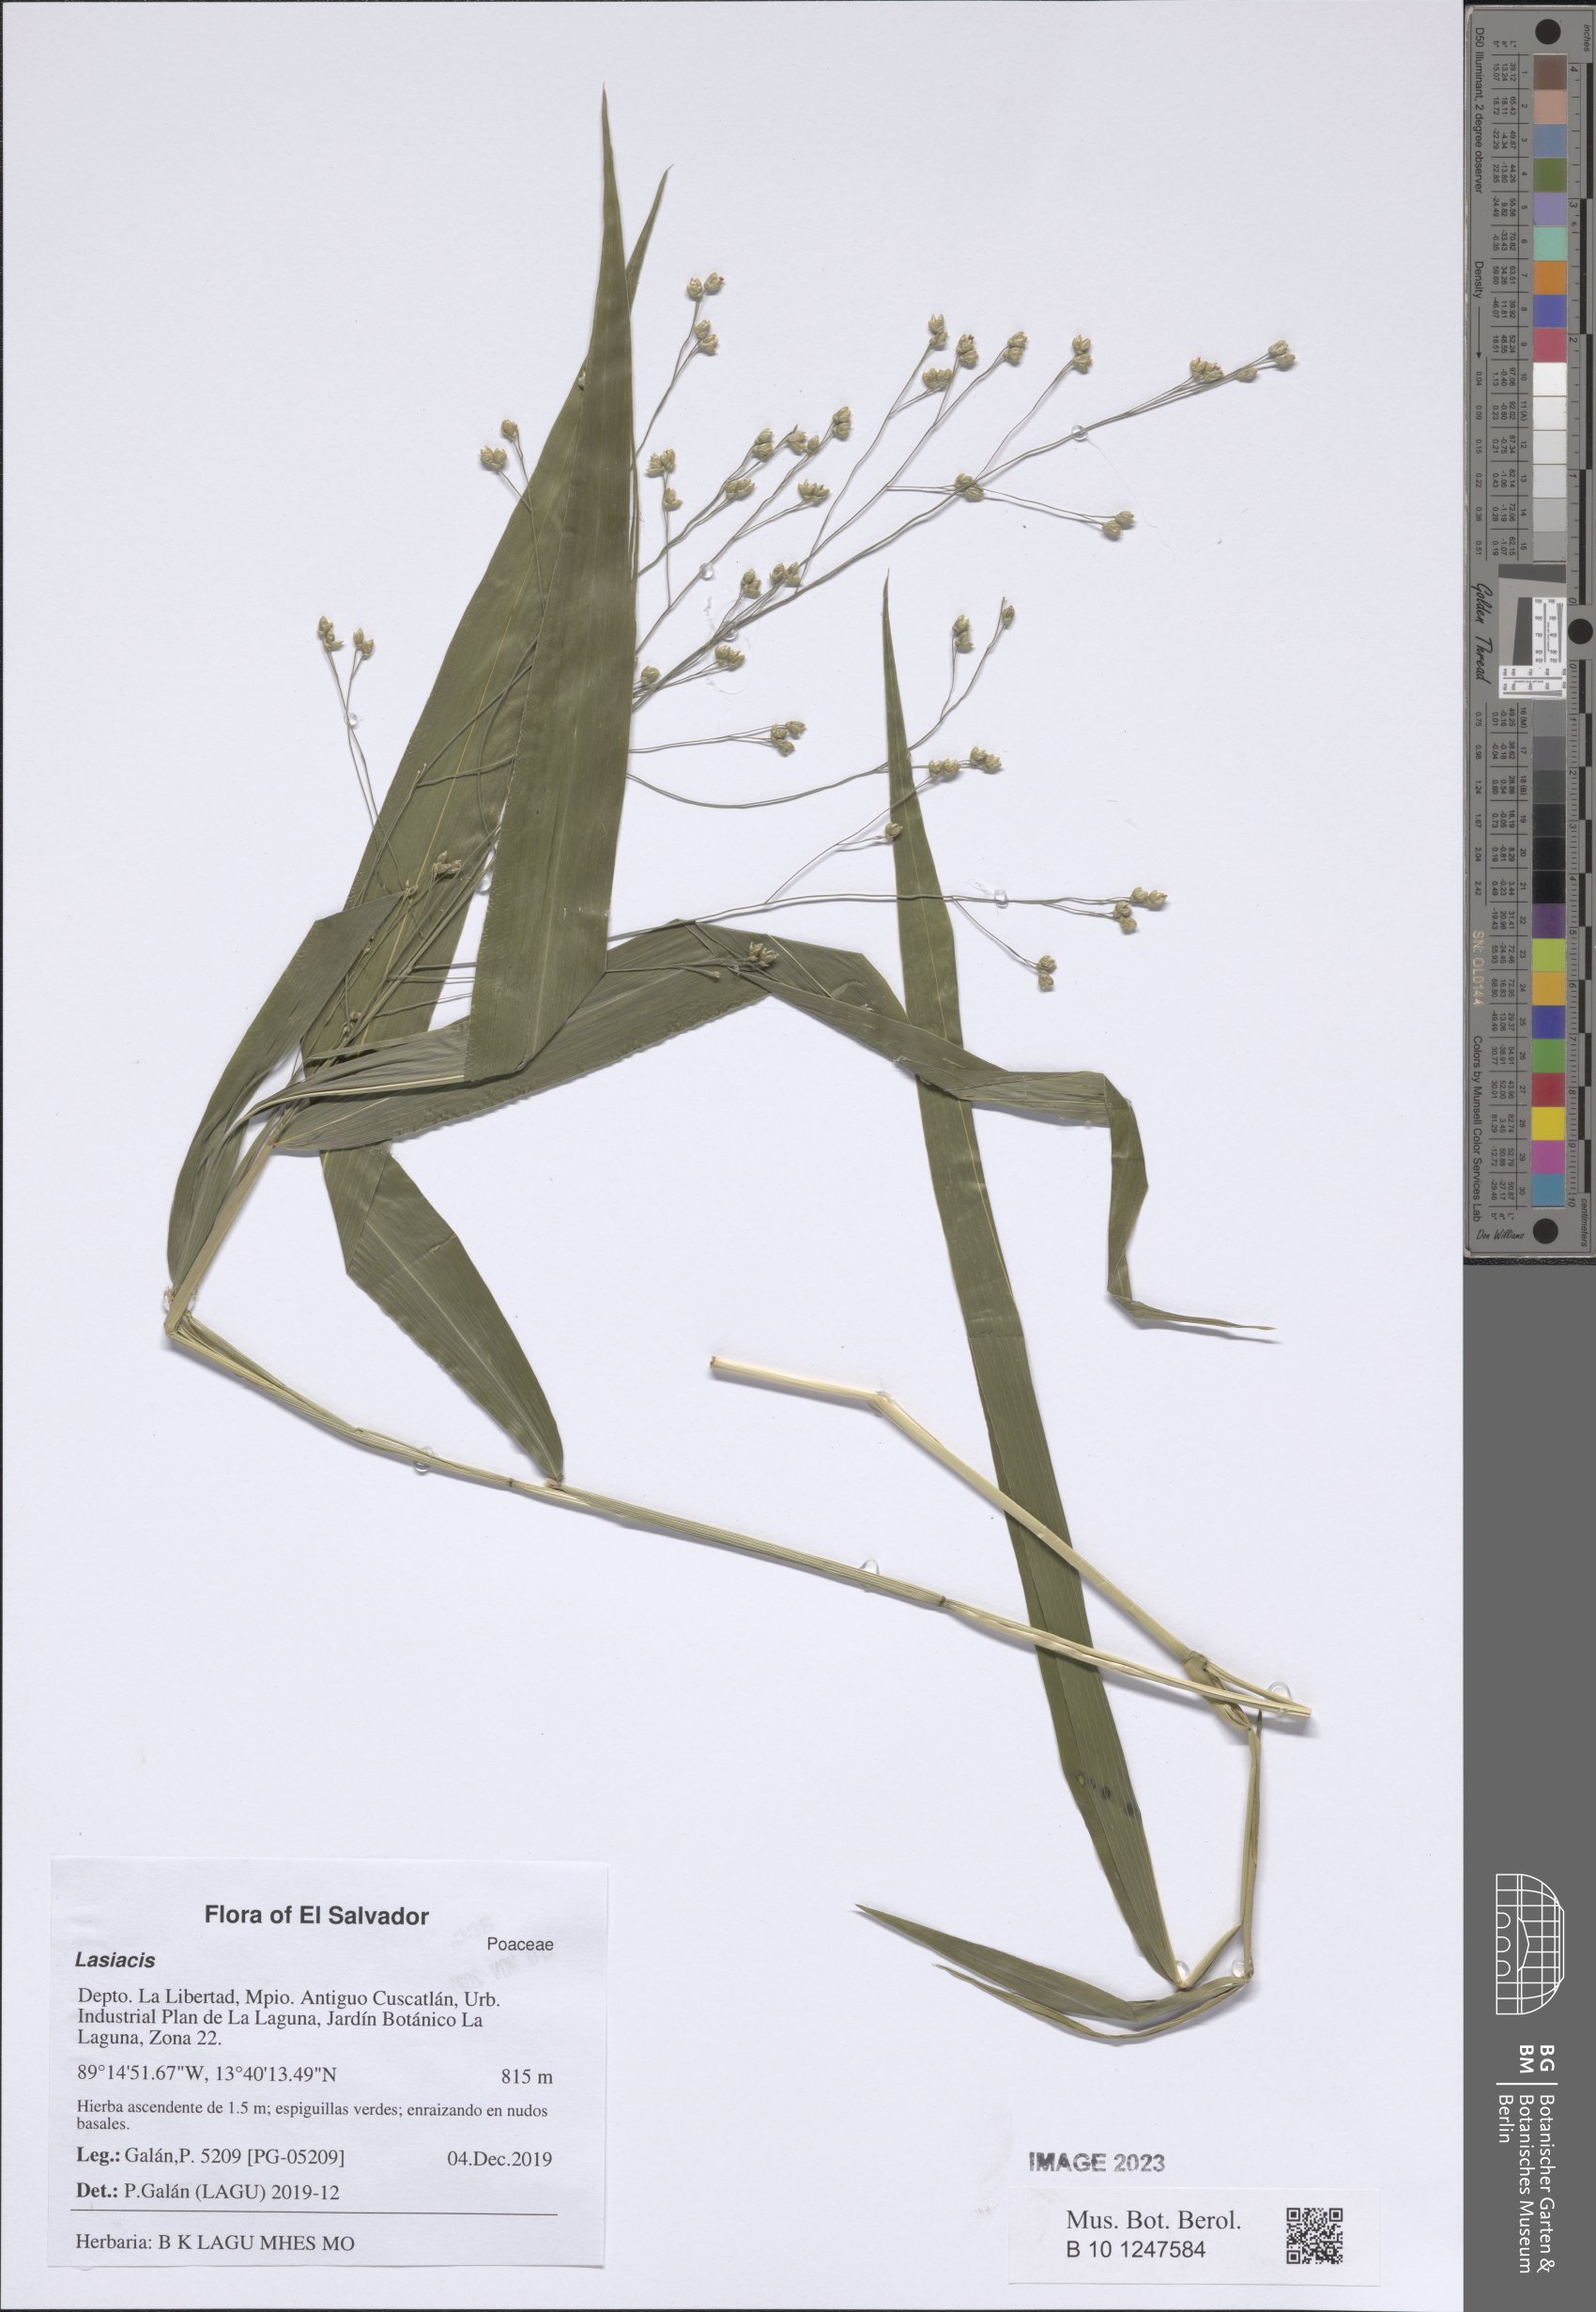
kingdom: Plantae
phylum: Tracheophyta
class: Liliopsida
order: Poales
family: Poaceae
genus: Lasiacis
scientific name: Lasiacis
